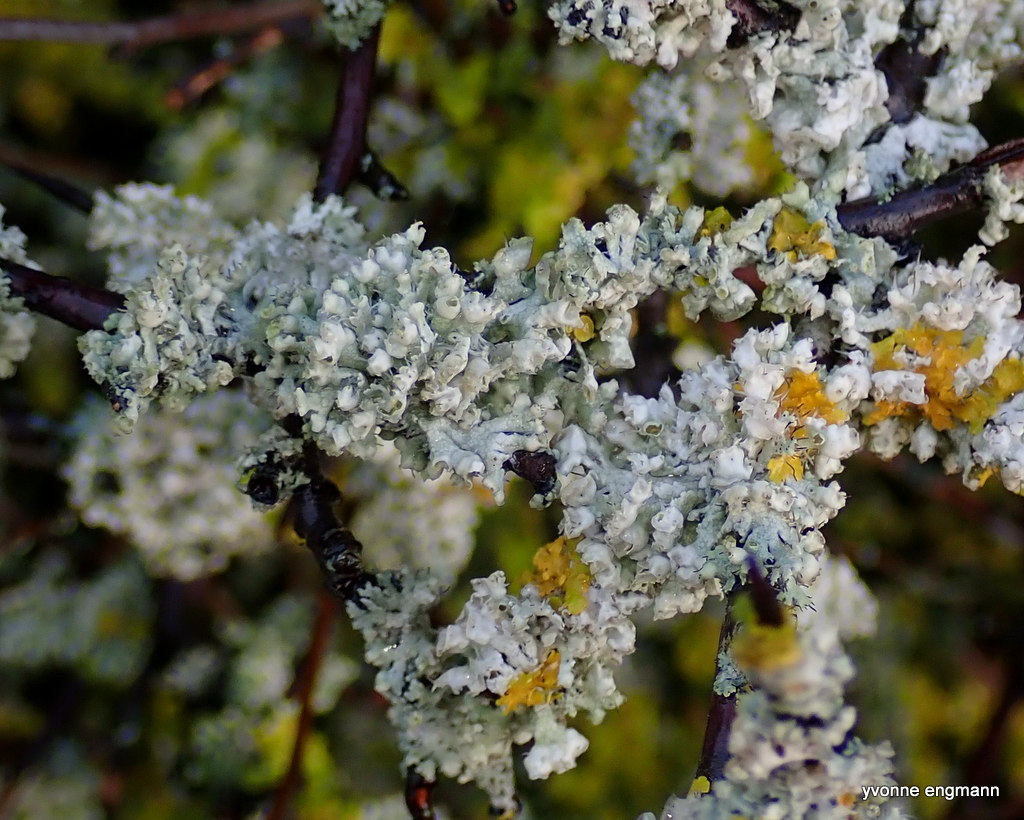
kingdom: Fungi
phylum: Ascomycota
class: Lecanoromycetes
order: Caliciales
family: Physciaceae
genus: Physcia
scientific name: Physcia adscendens
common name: hætte-rosetlav
